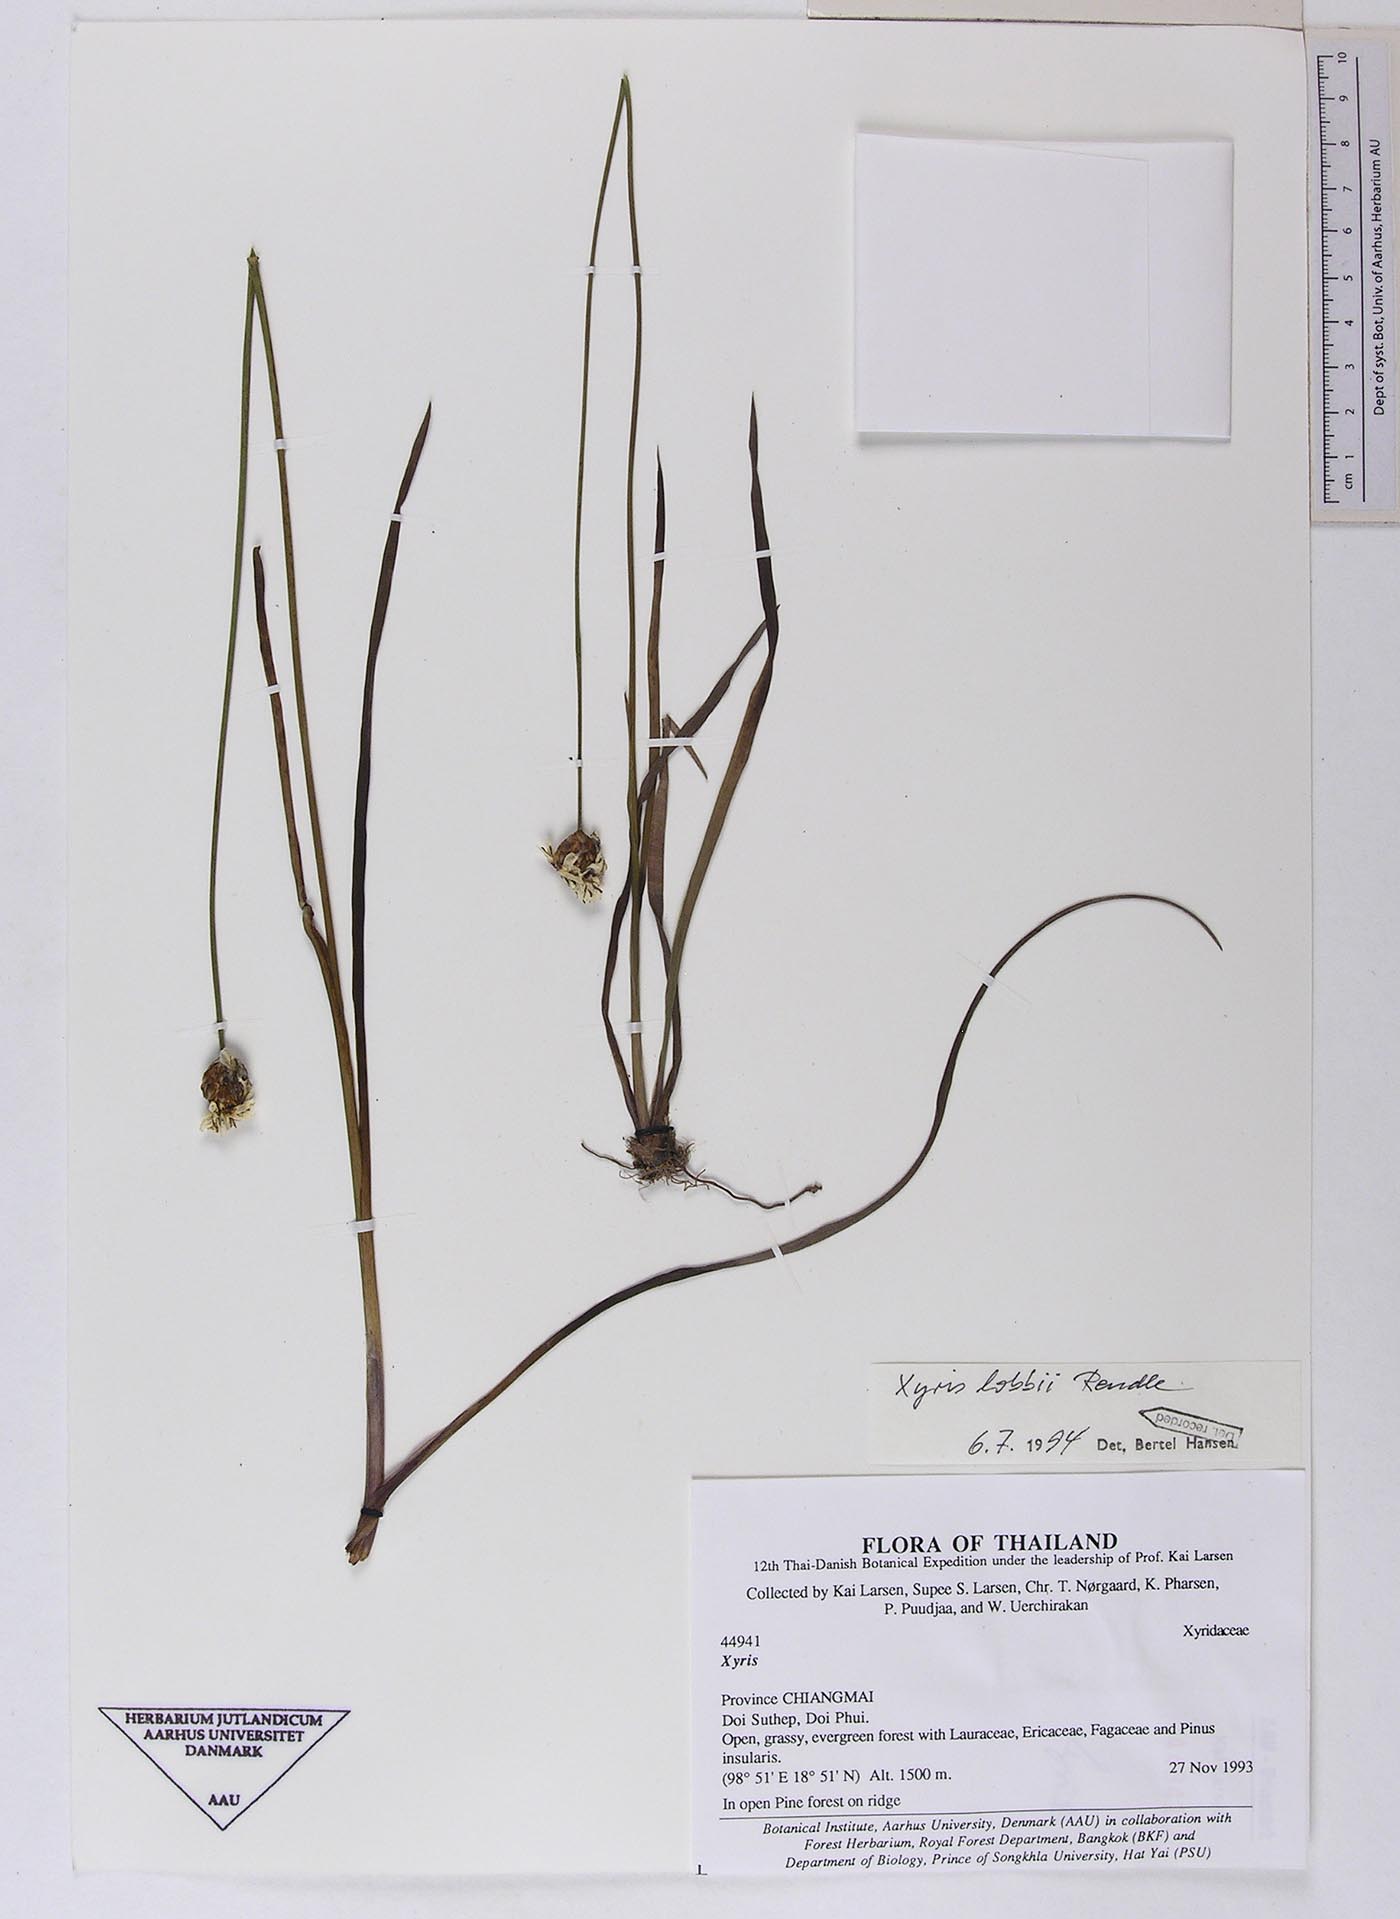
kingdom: Plantae
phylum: Tracheophyta
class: Liliopsida
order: Poales
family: Xyridaceae
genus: Xyris
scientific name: Xyris lobbii
